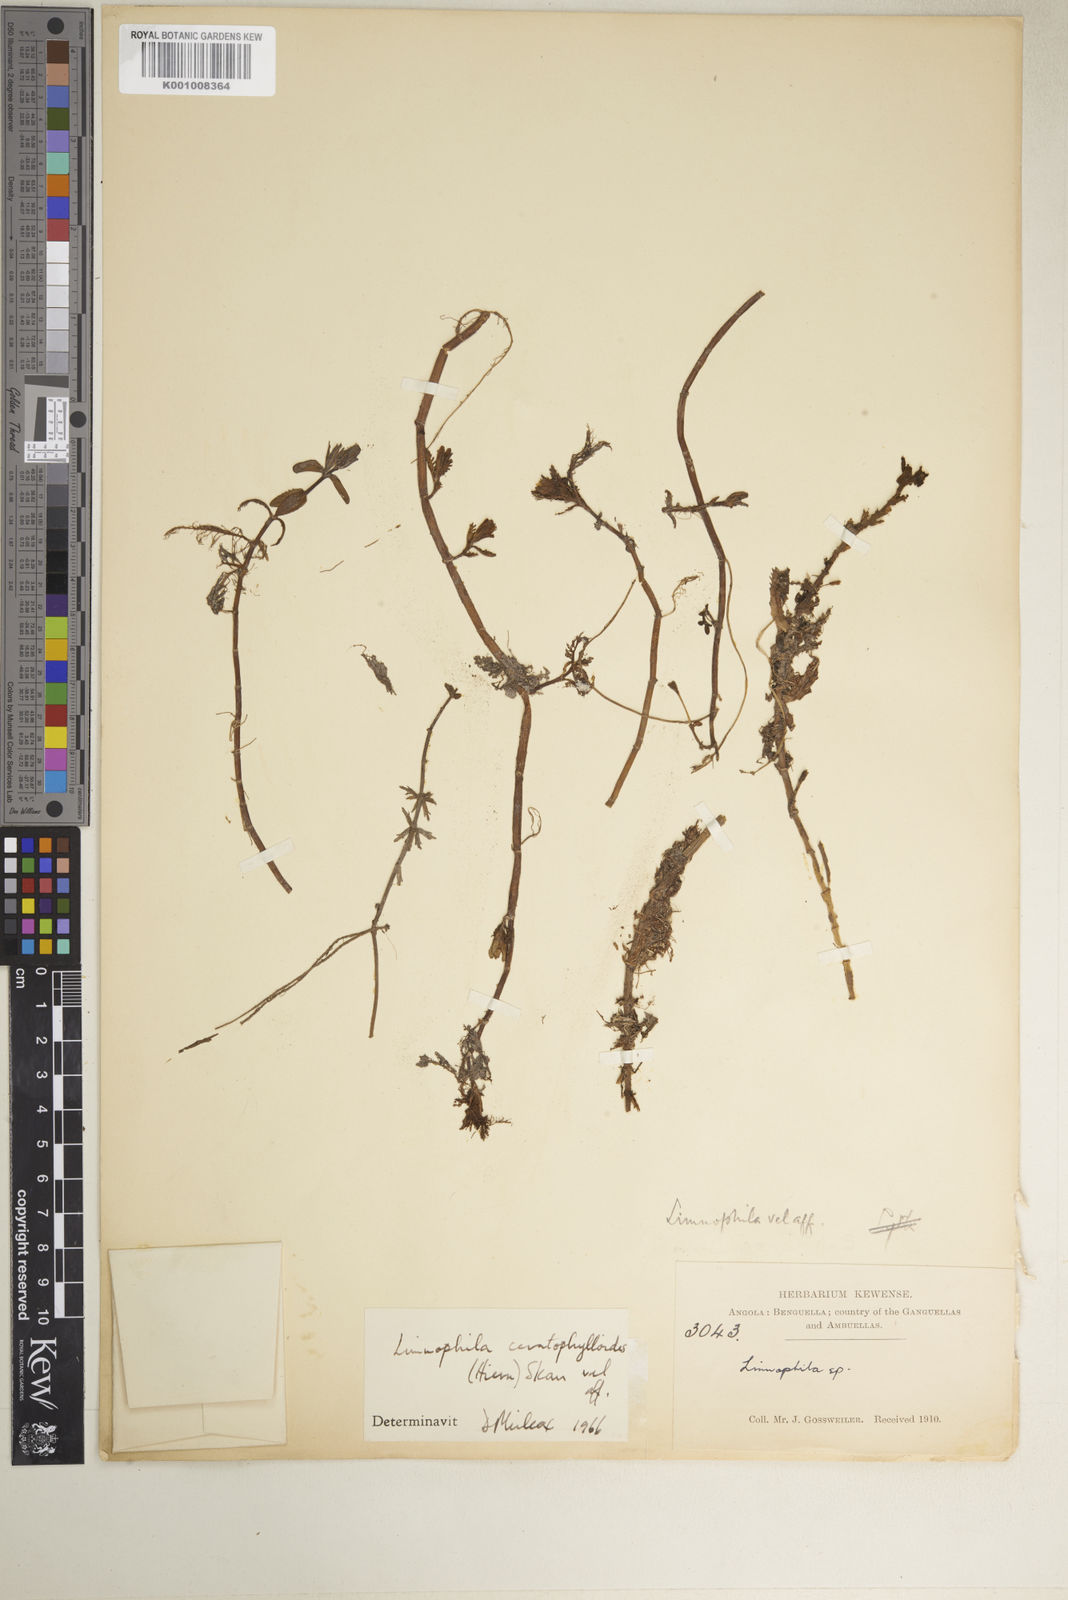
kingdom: Plantae
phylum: Tracheophyta
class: Magnoliopsida
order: Lamiales
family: Plantaginaceae
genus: Limnophila
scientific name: Limnophila ceratophylloides
